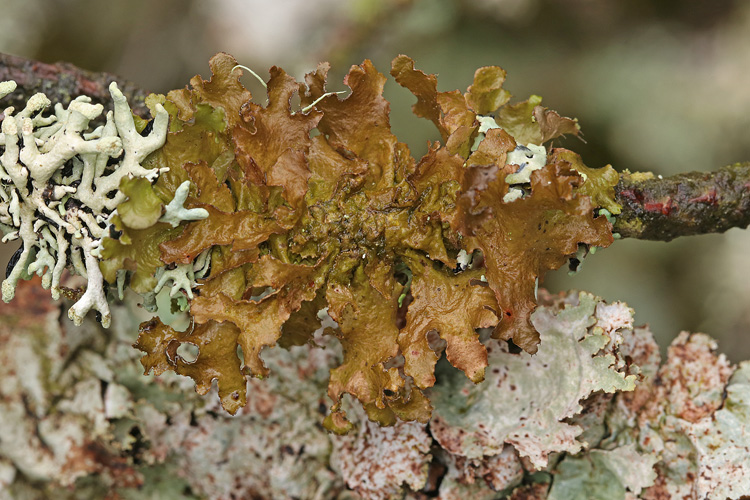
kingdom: Fungi
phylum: Ascomycota
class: Lecanoromycetes
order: Lecanorales
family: Parmeliaceae
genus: Nephromopsis
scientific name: Nephromopsis chlorophylla
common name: olivenbrun kruslav
